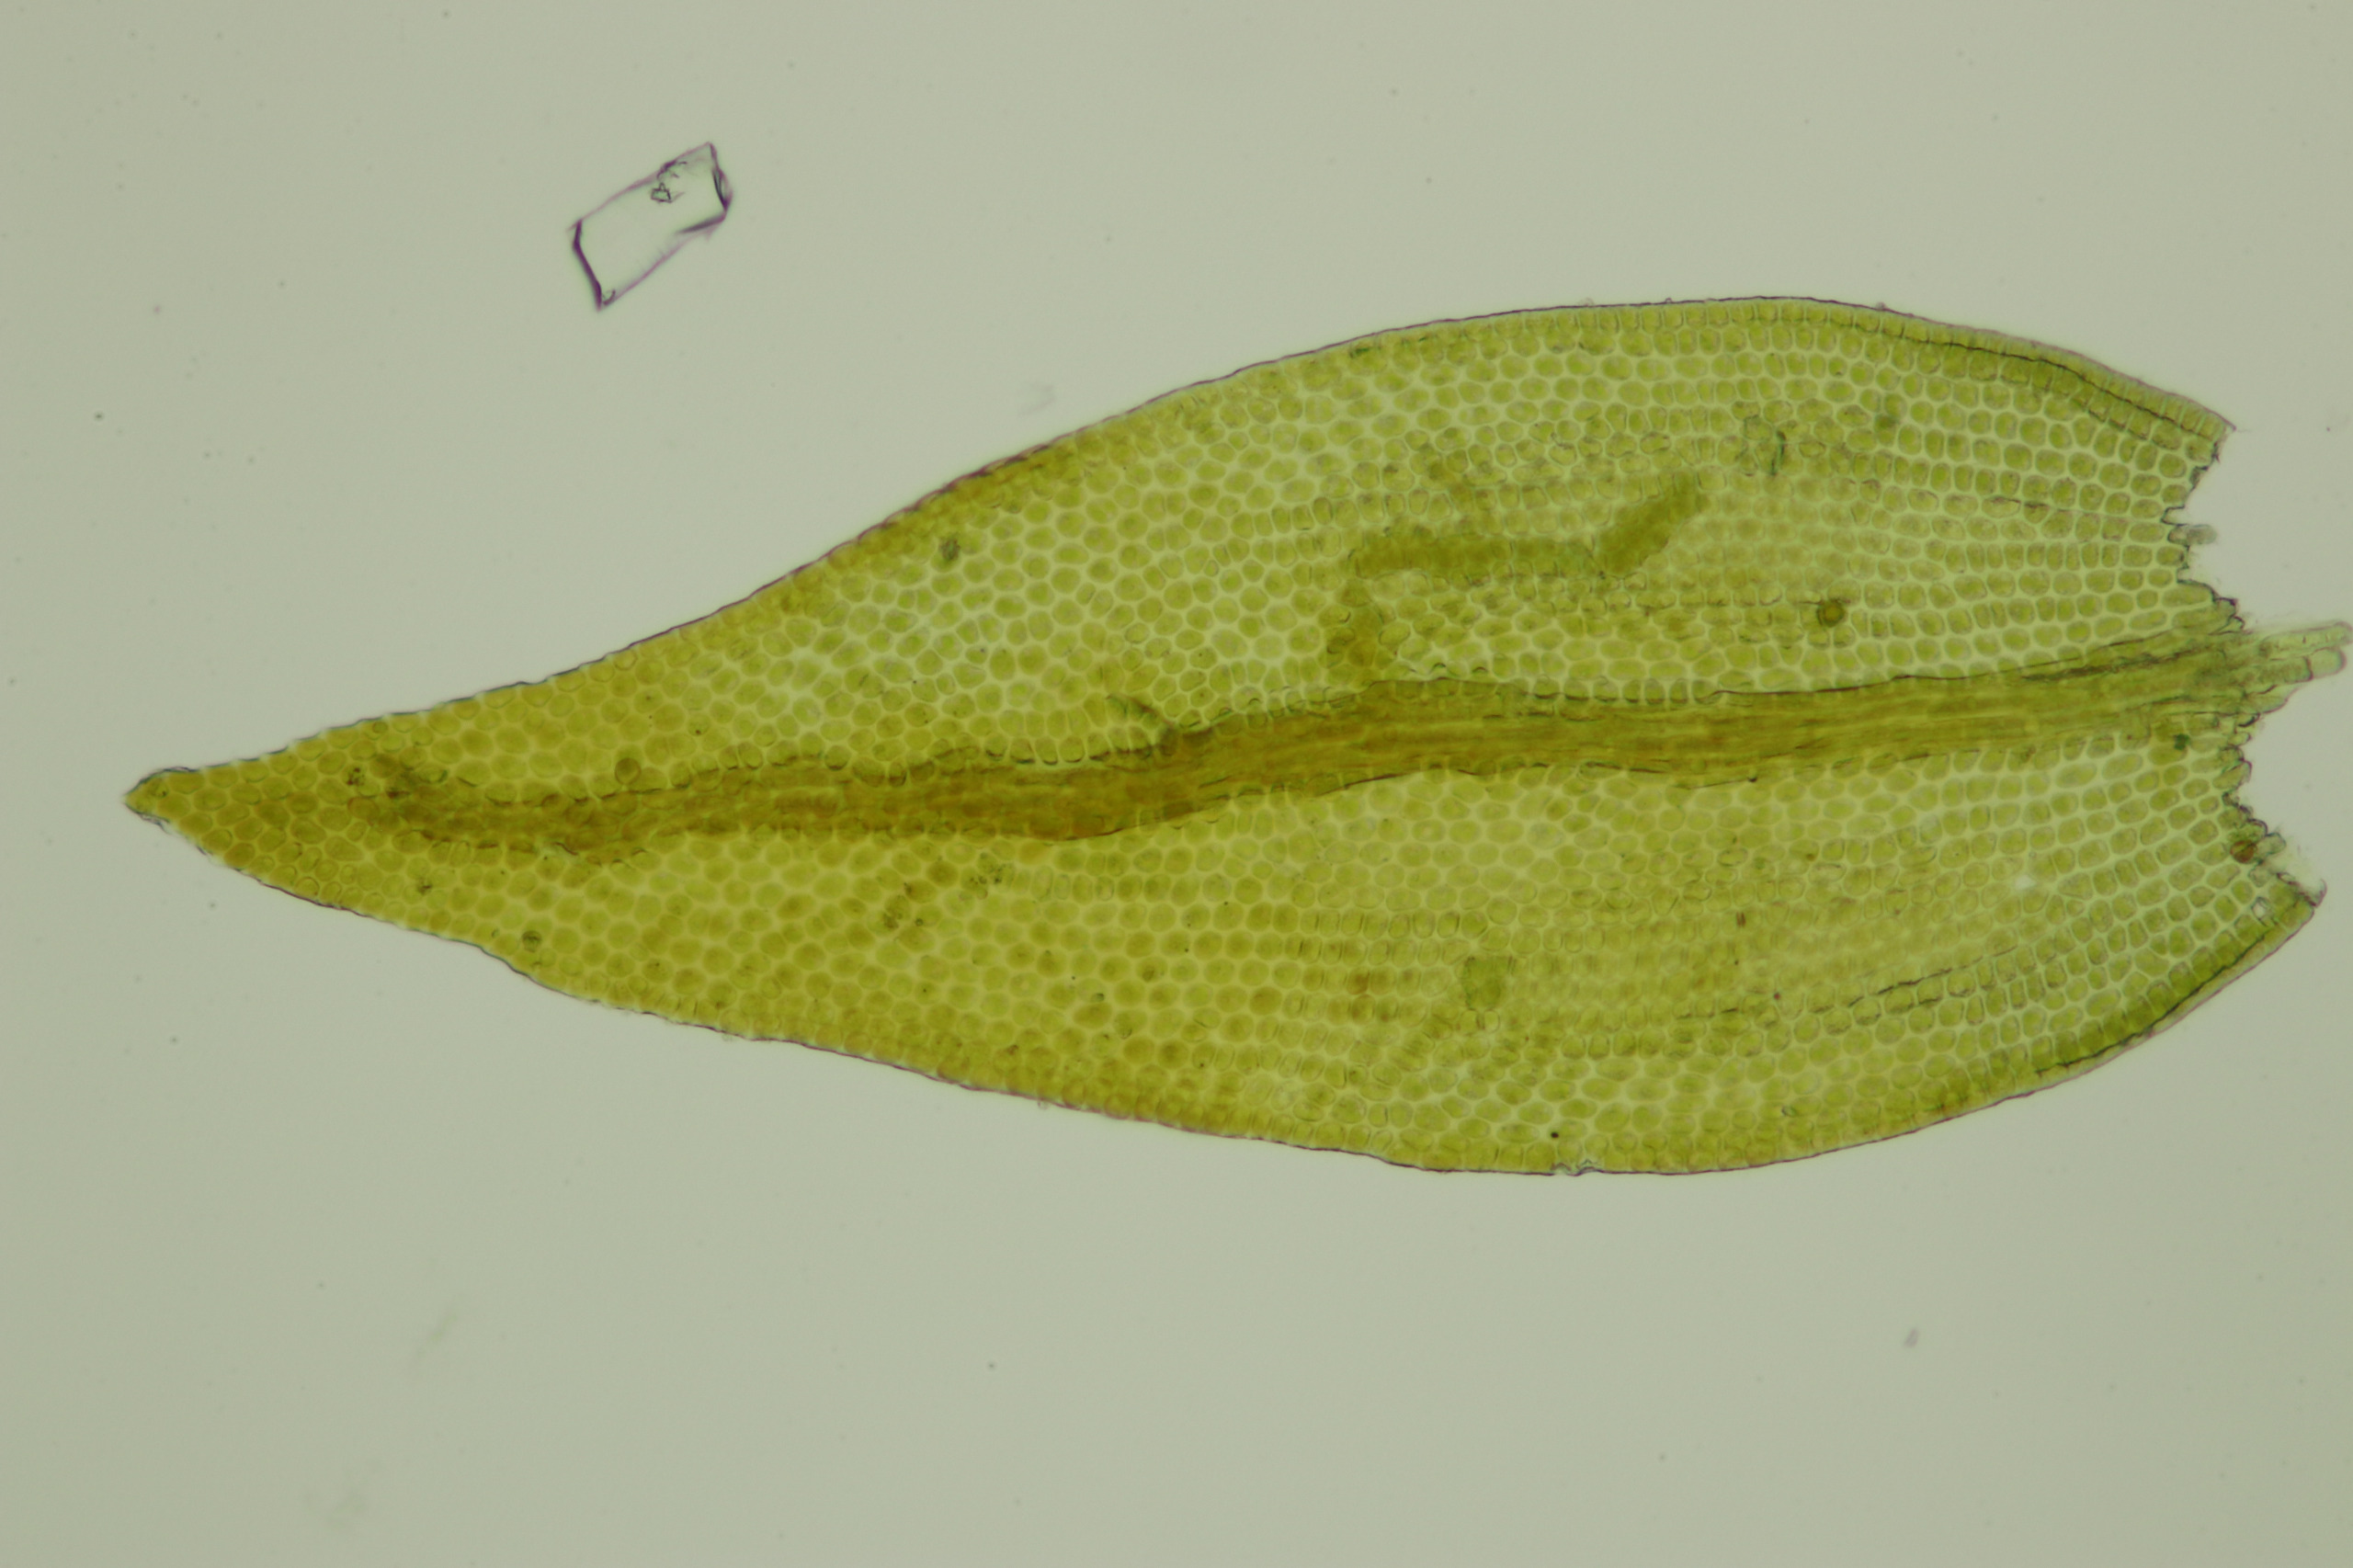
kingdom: Plantae
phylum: Bryophyta
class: Bryopsida
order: Hypnales
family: Leskeaceae
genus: Leskea
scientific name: Leskea polycarpa
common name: Mat lærkemos
